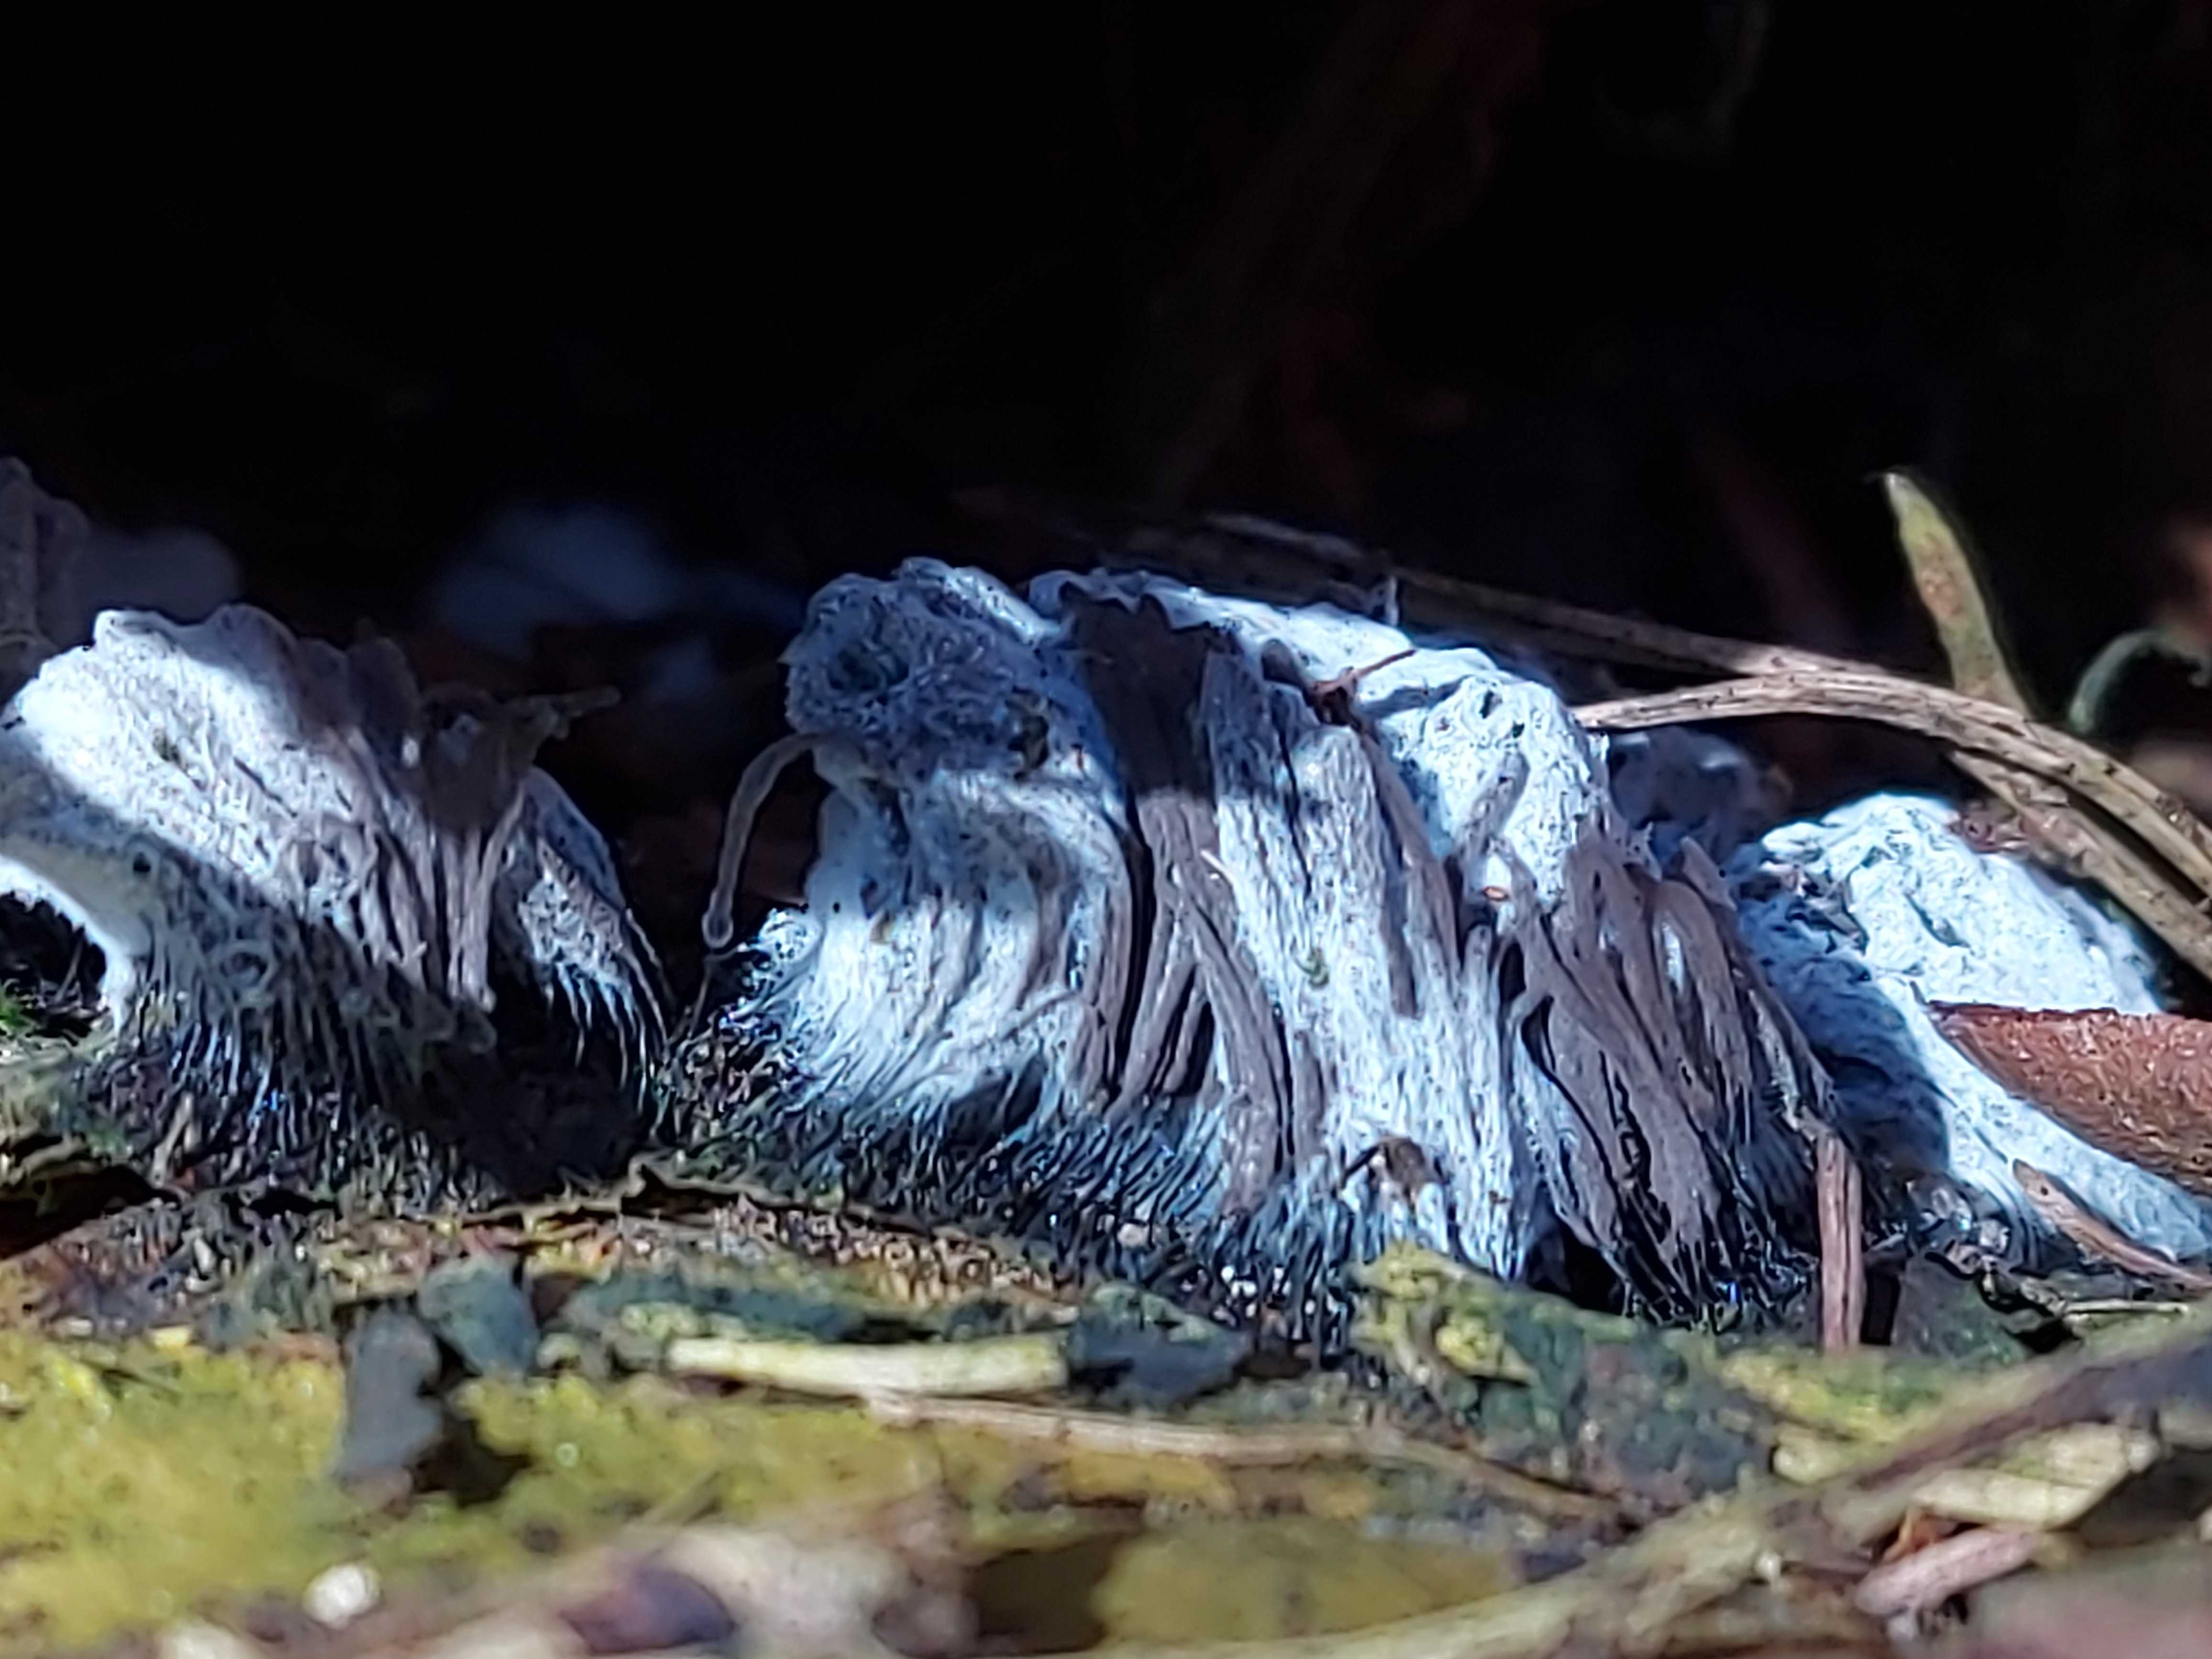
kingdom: Protozoa
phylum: Mycetozoa
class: Myxomycetes
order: Stemonitidales
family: Stemonitidaceae
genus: Stemonitis
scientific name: Stemonitis
